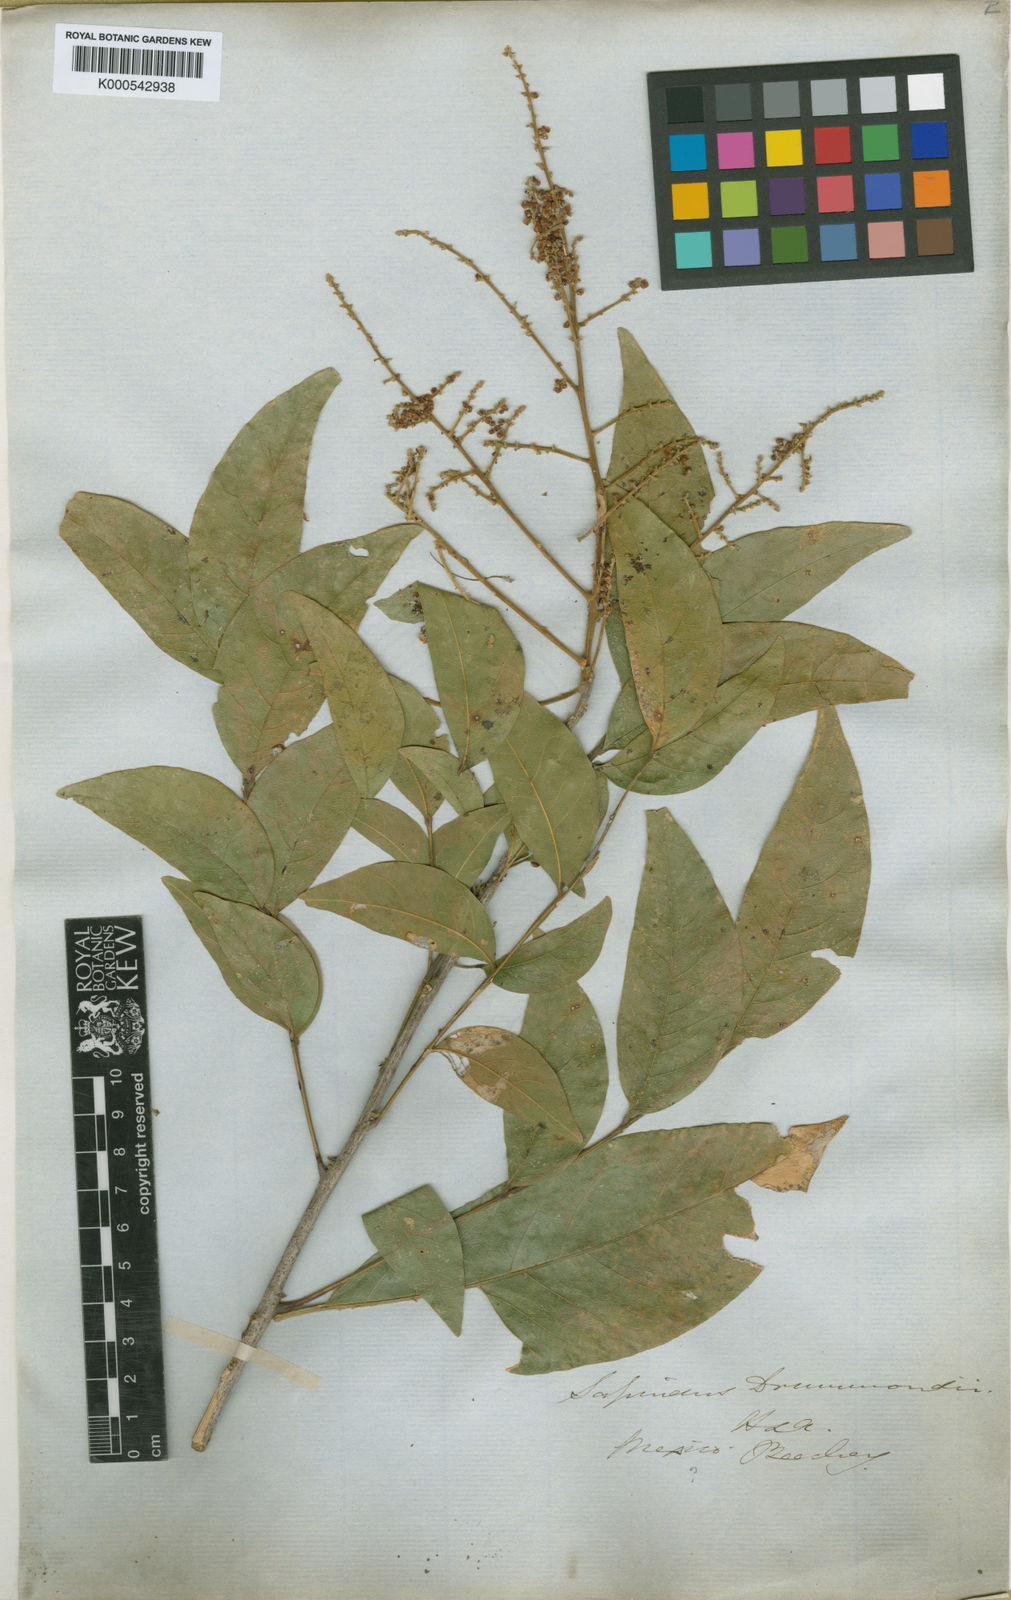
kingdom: Plantae
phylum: Tracheophyta
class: Magnoliopsida
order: Sapindales
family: Sapindaceae
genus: Sapindus
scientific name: Sapindus drummondii
